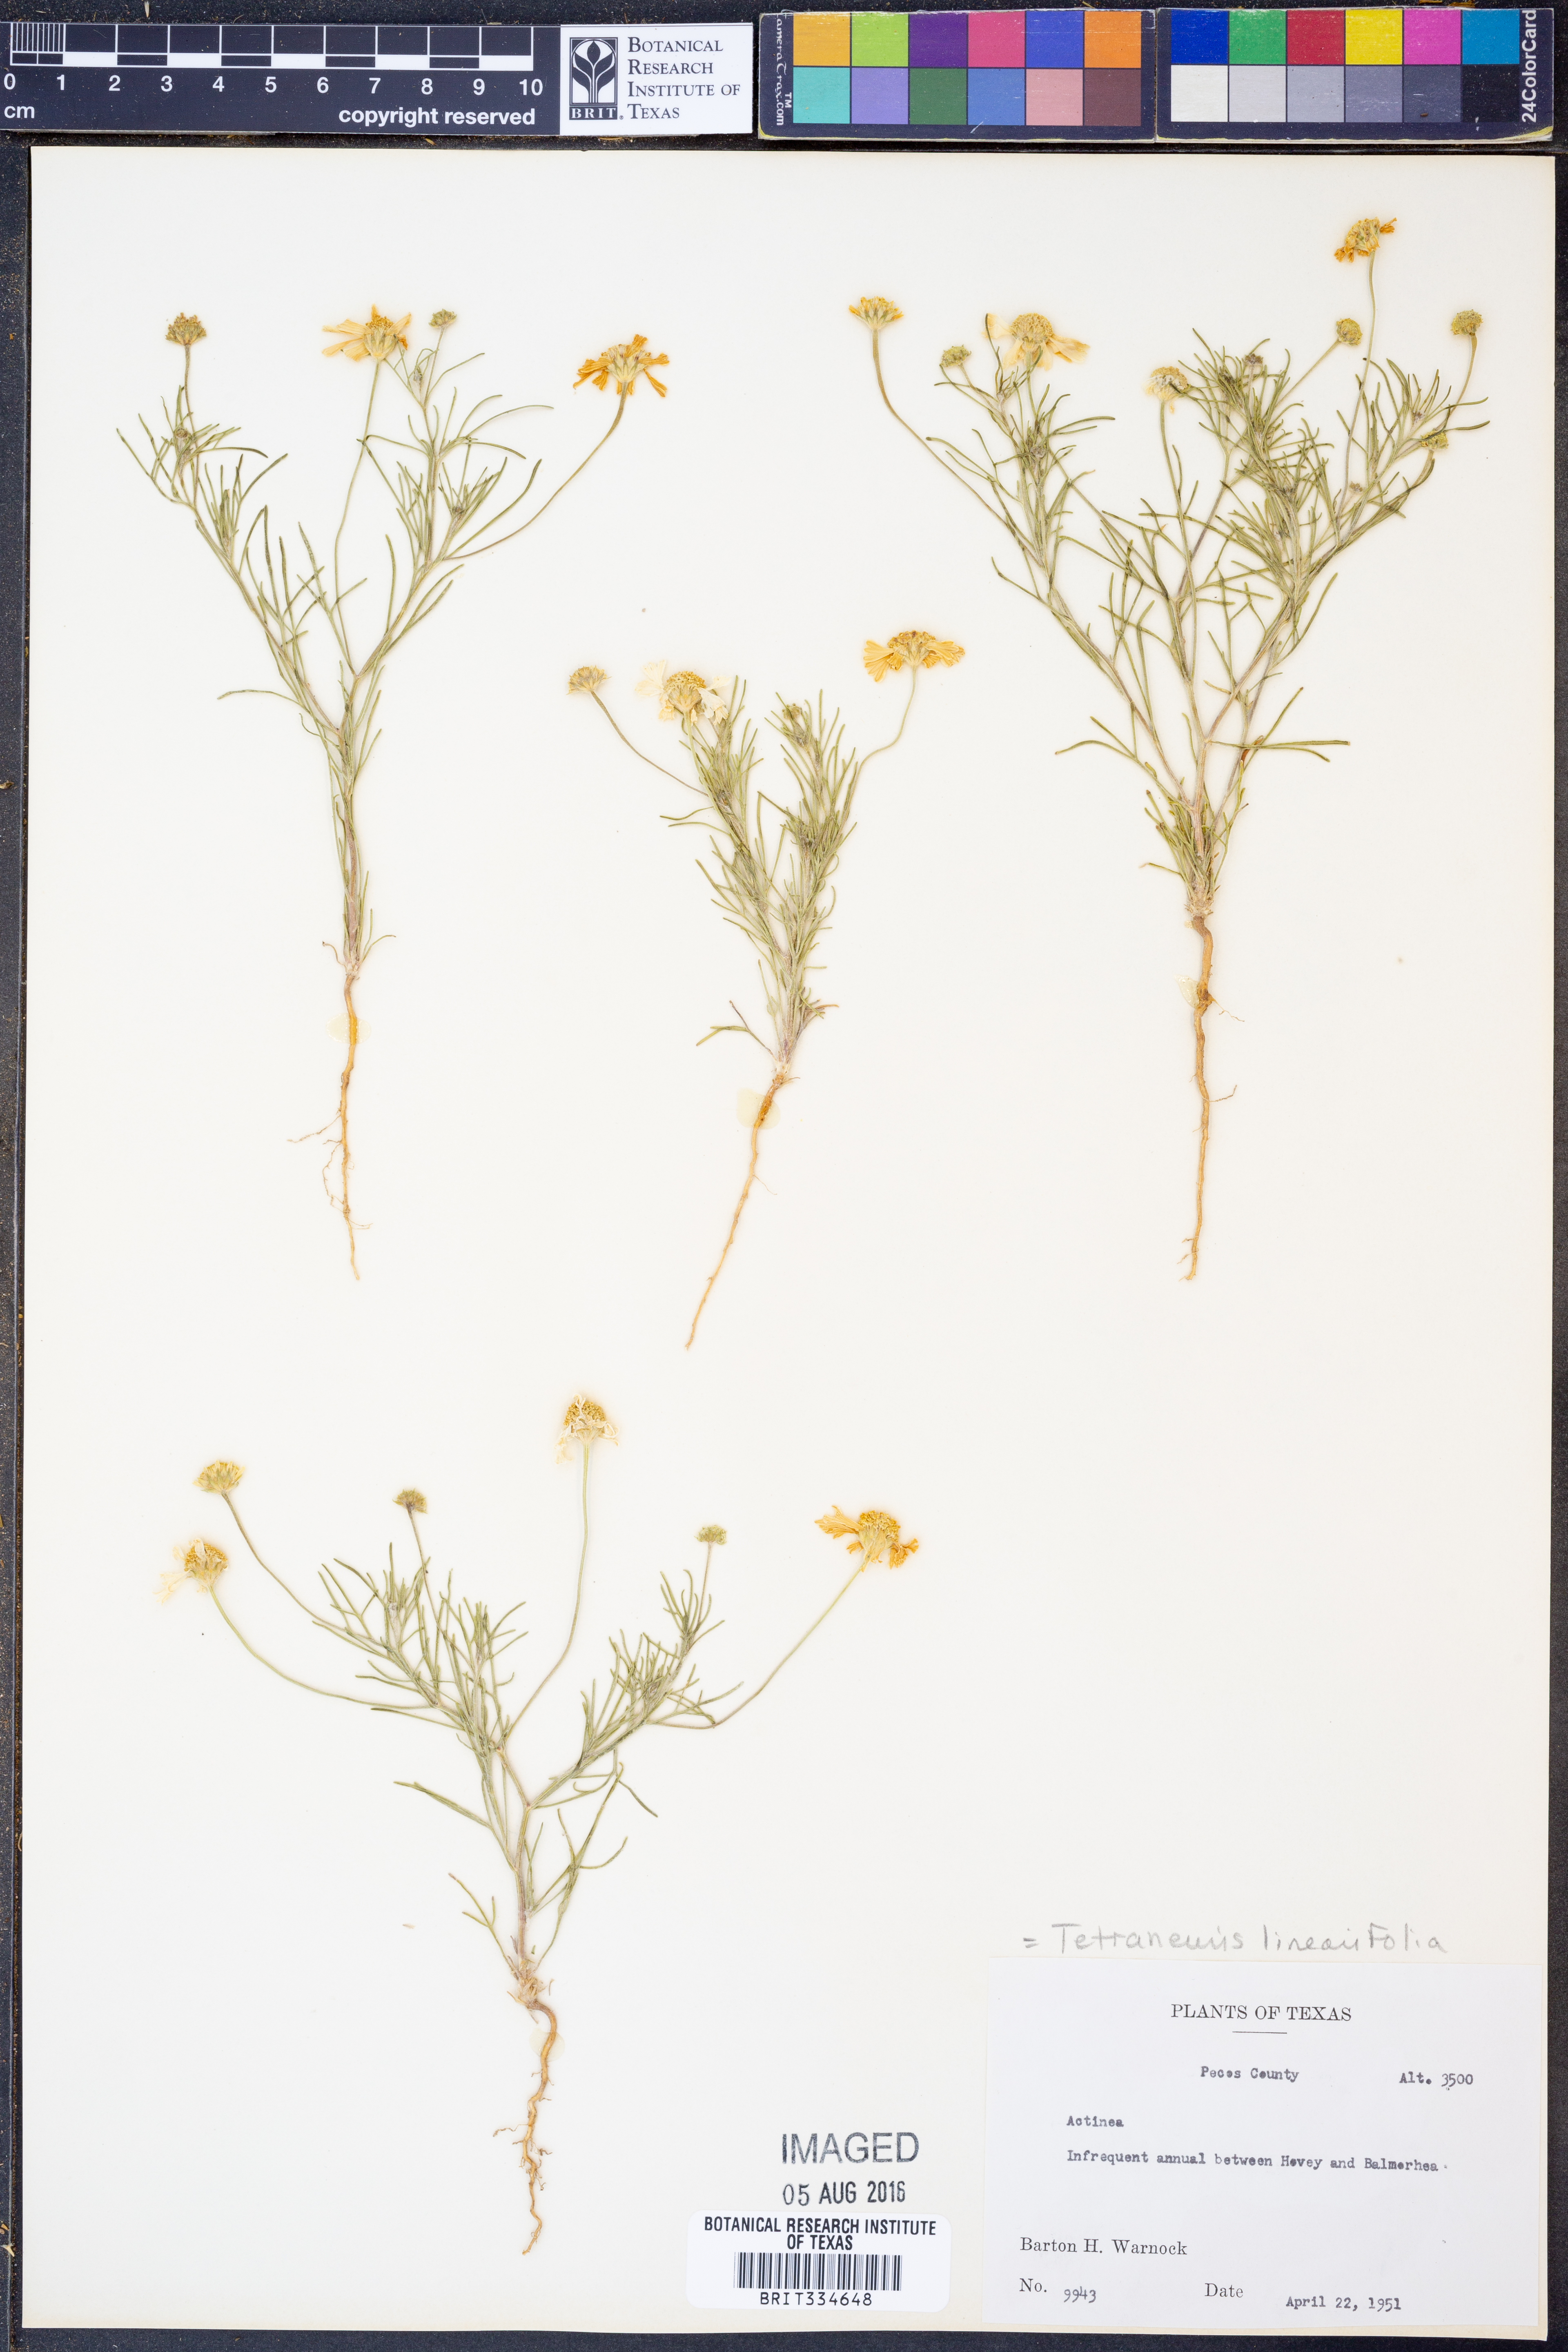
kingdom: Plantae
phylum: Tracheophyta
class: Magnoliopsida
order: Asterales
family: Asteraceae
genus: Tetraneuris
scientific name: Tetraneuris linearifolia
